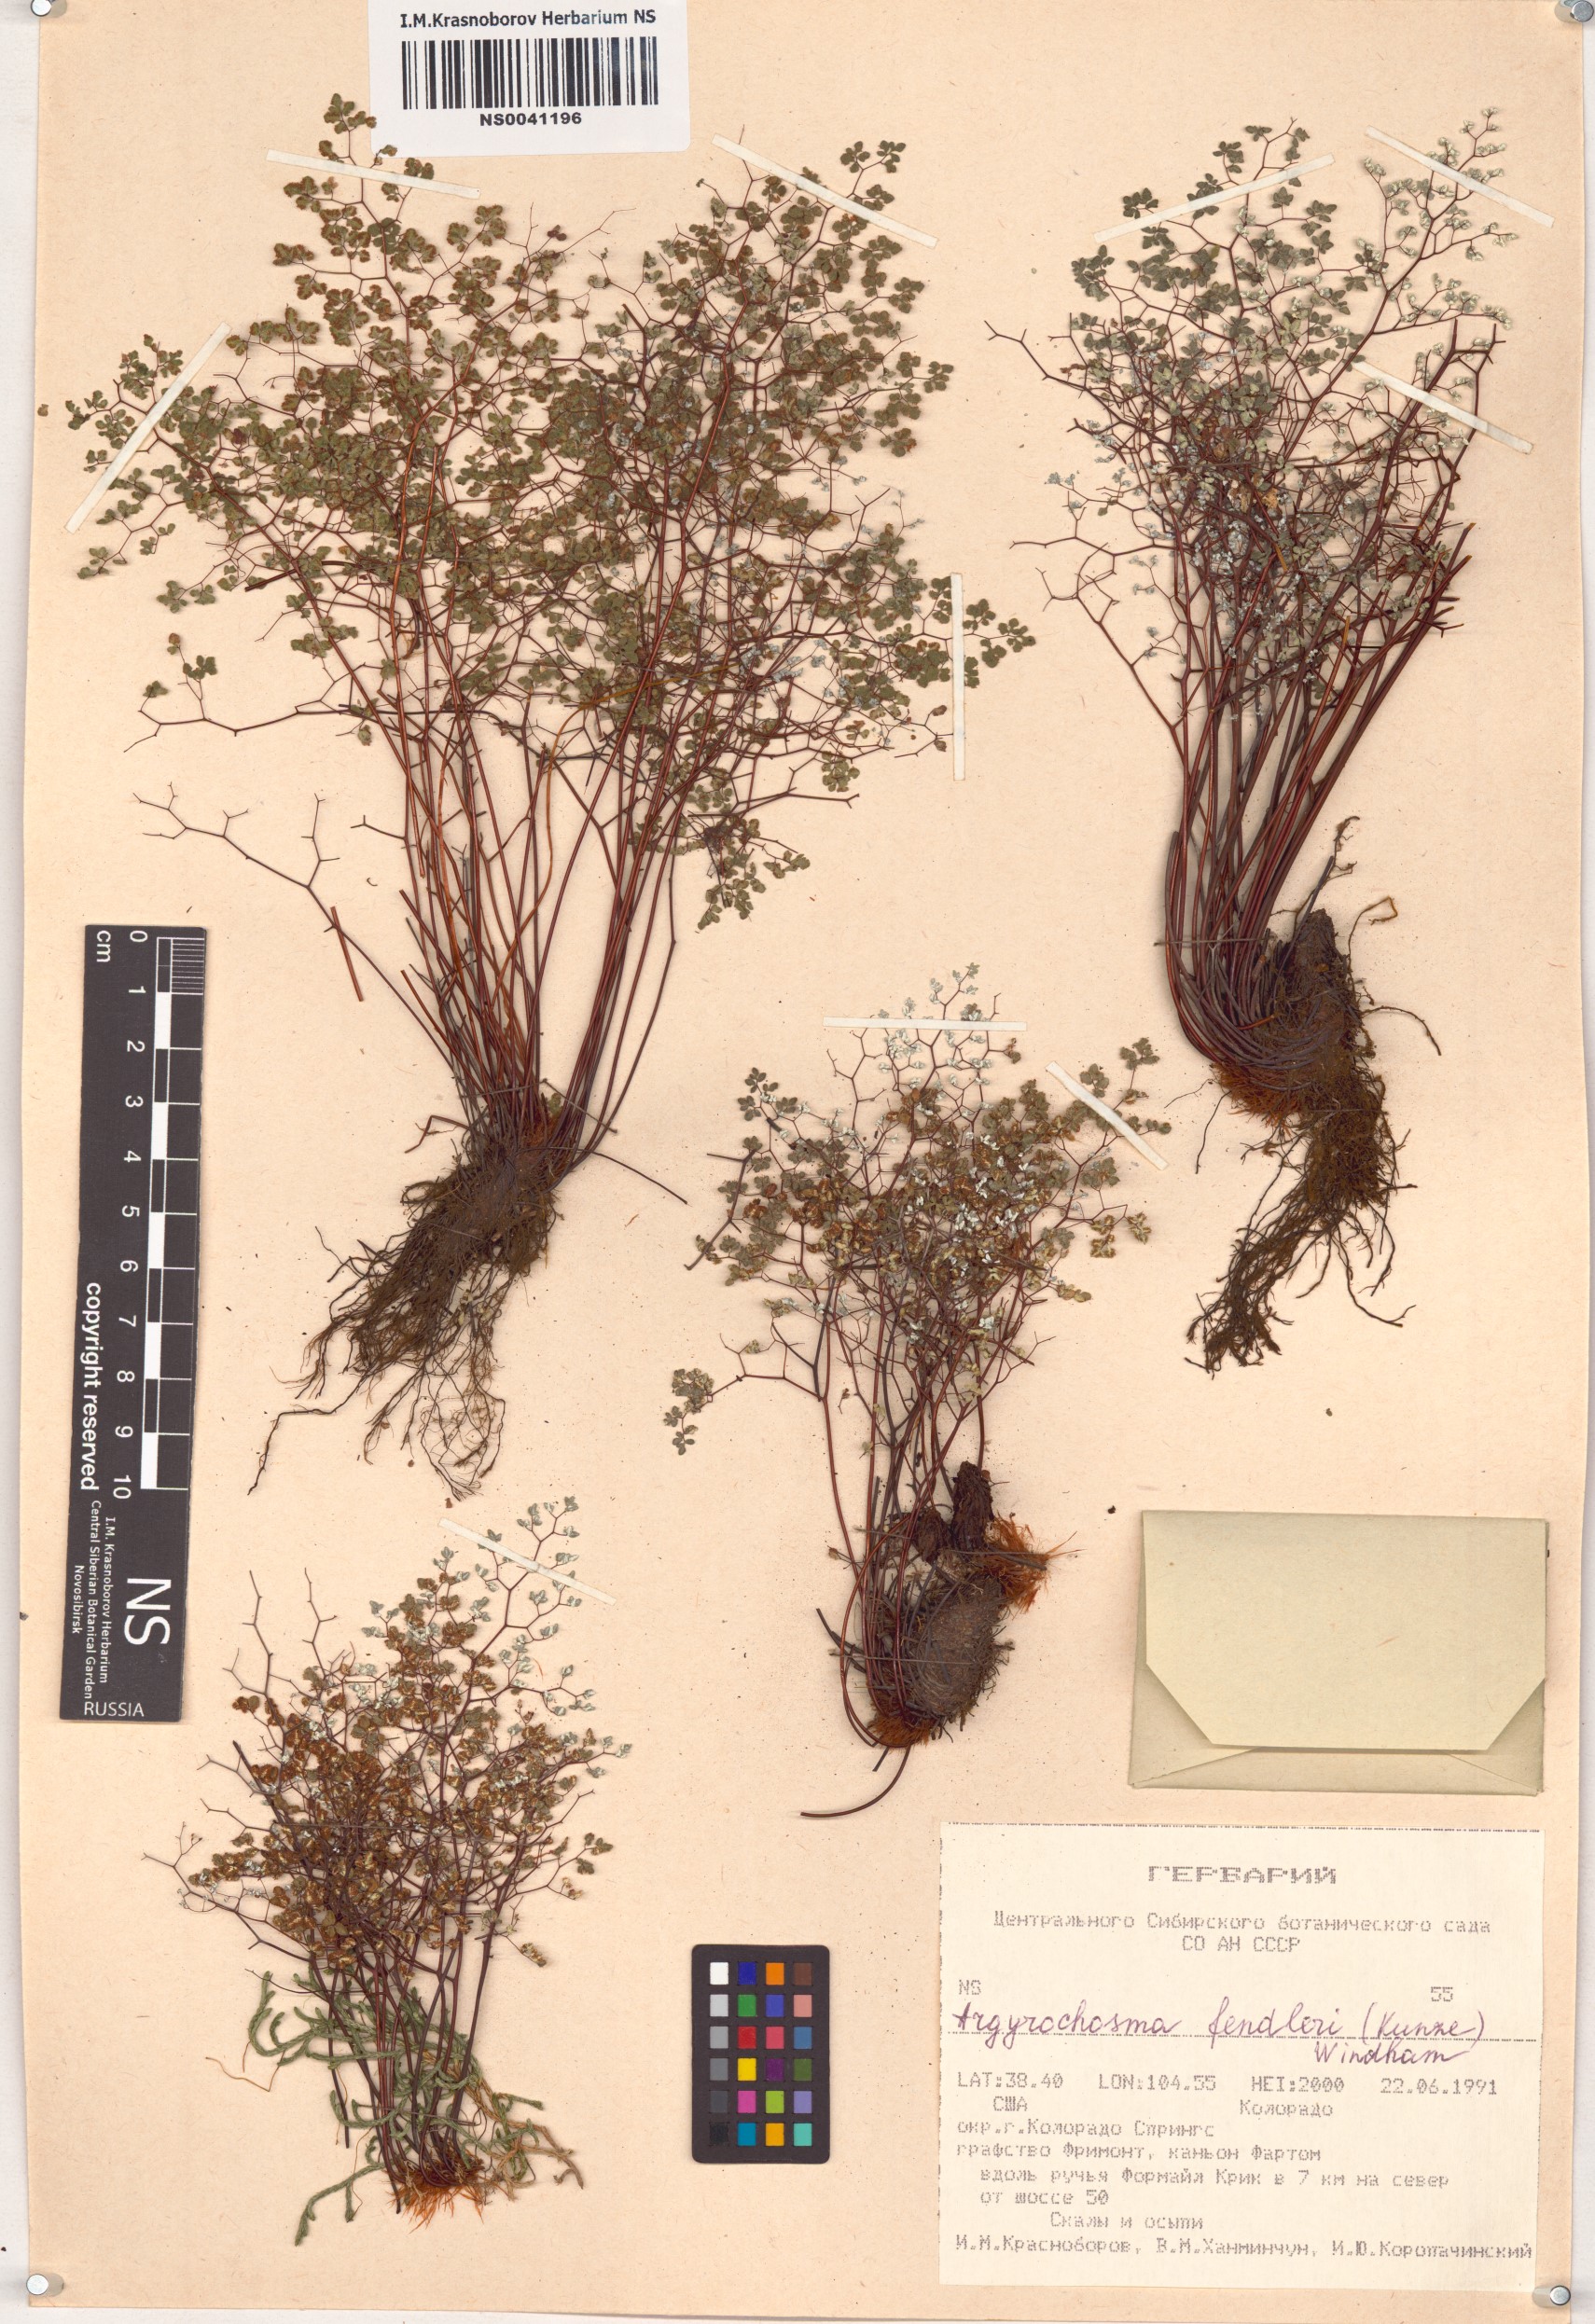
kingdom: Plantae
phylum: Tracheophyta
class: Polypodiopsida
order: Polypodiales
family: Pteridaceae
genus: Argyrochosma
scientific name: Argyrochosma fendleri
